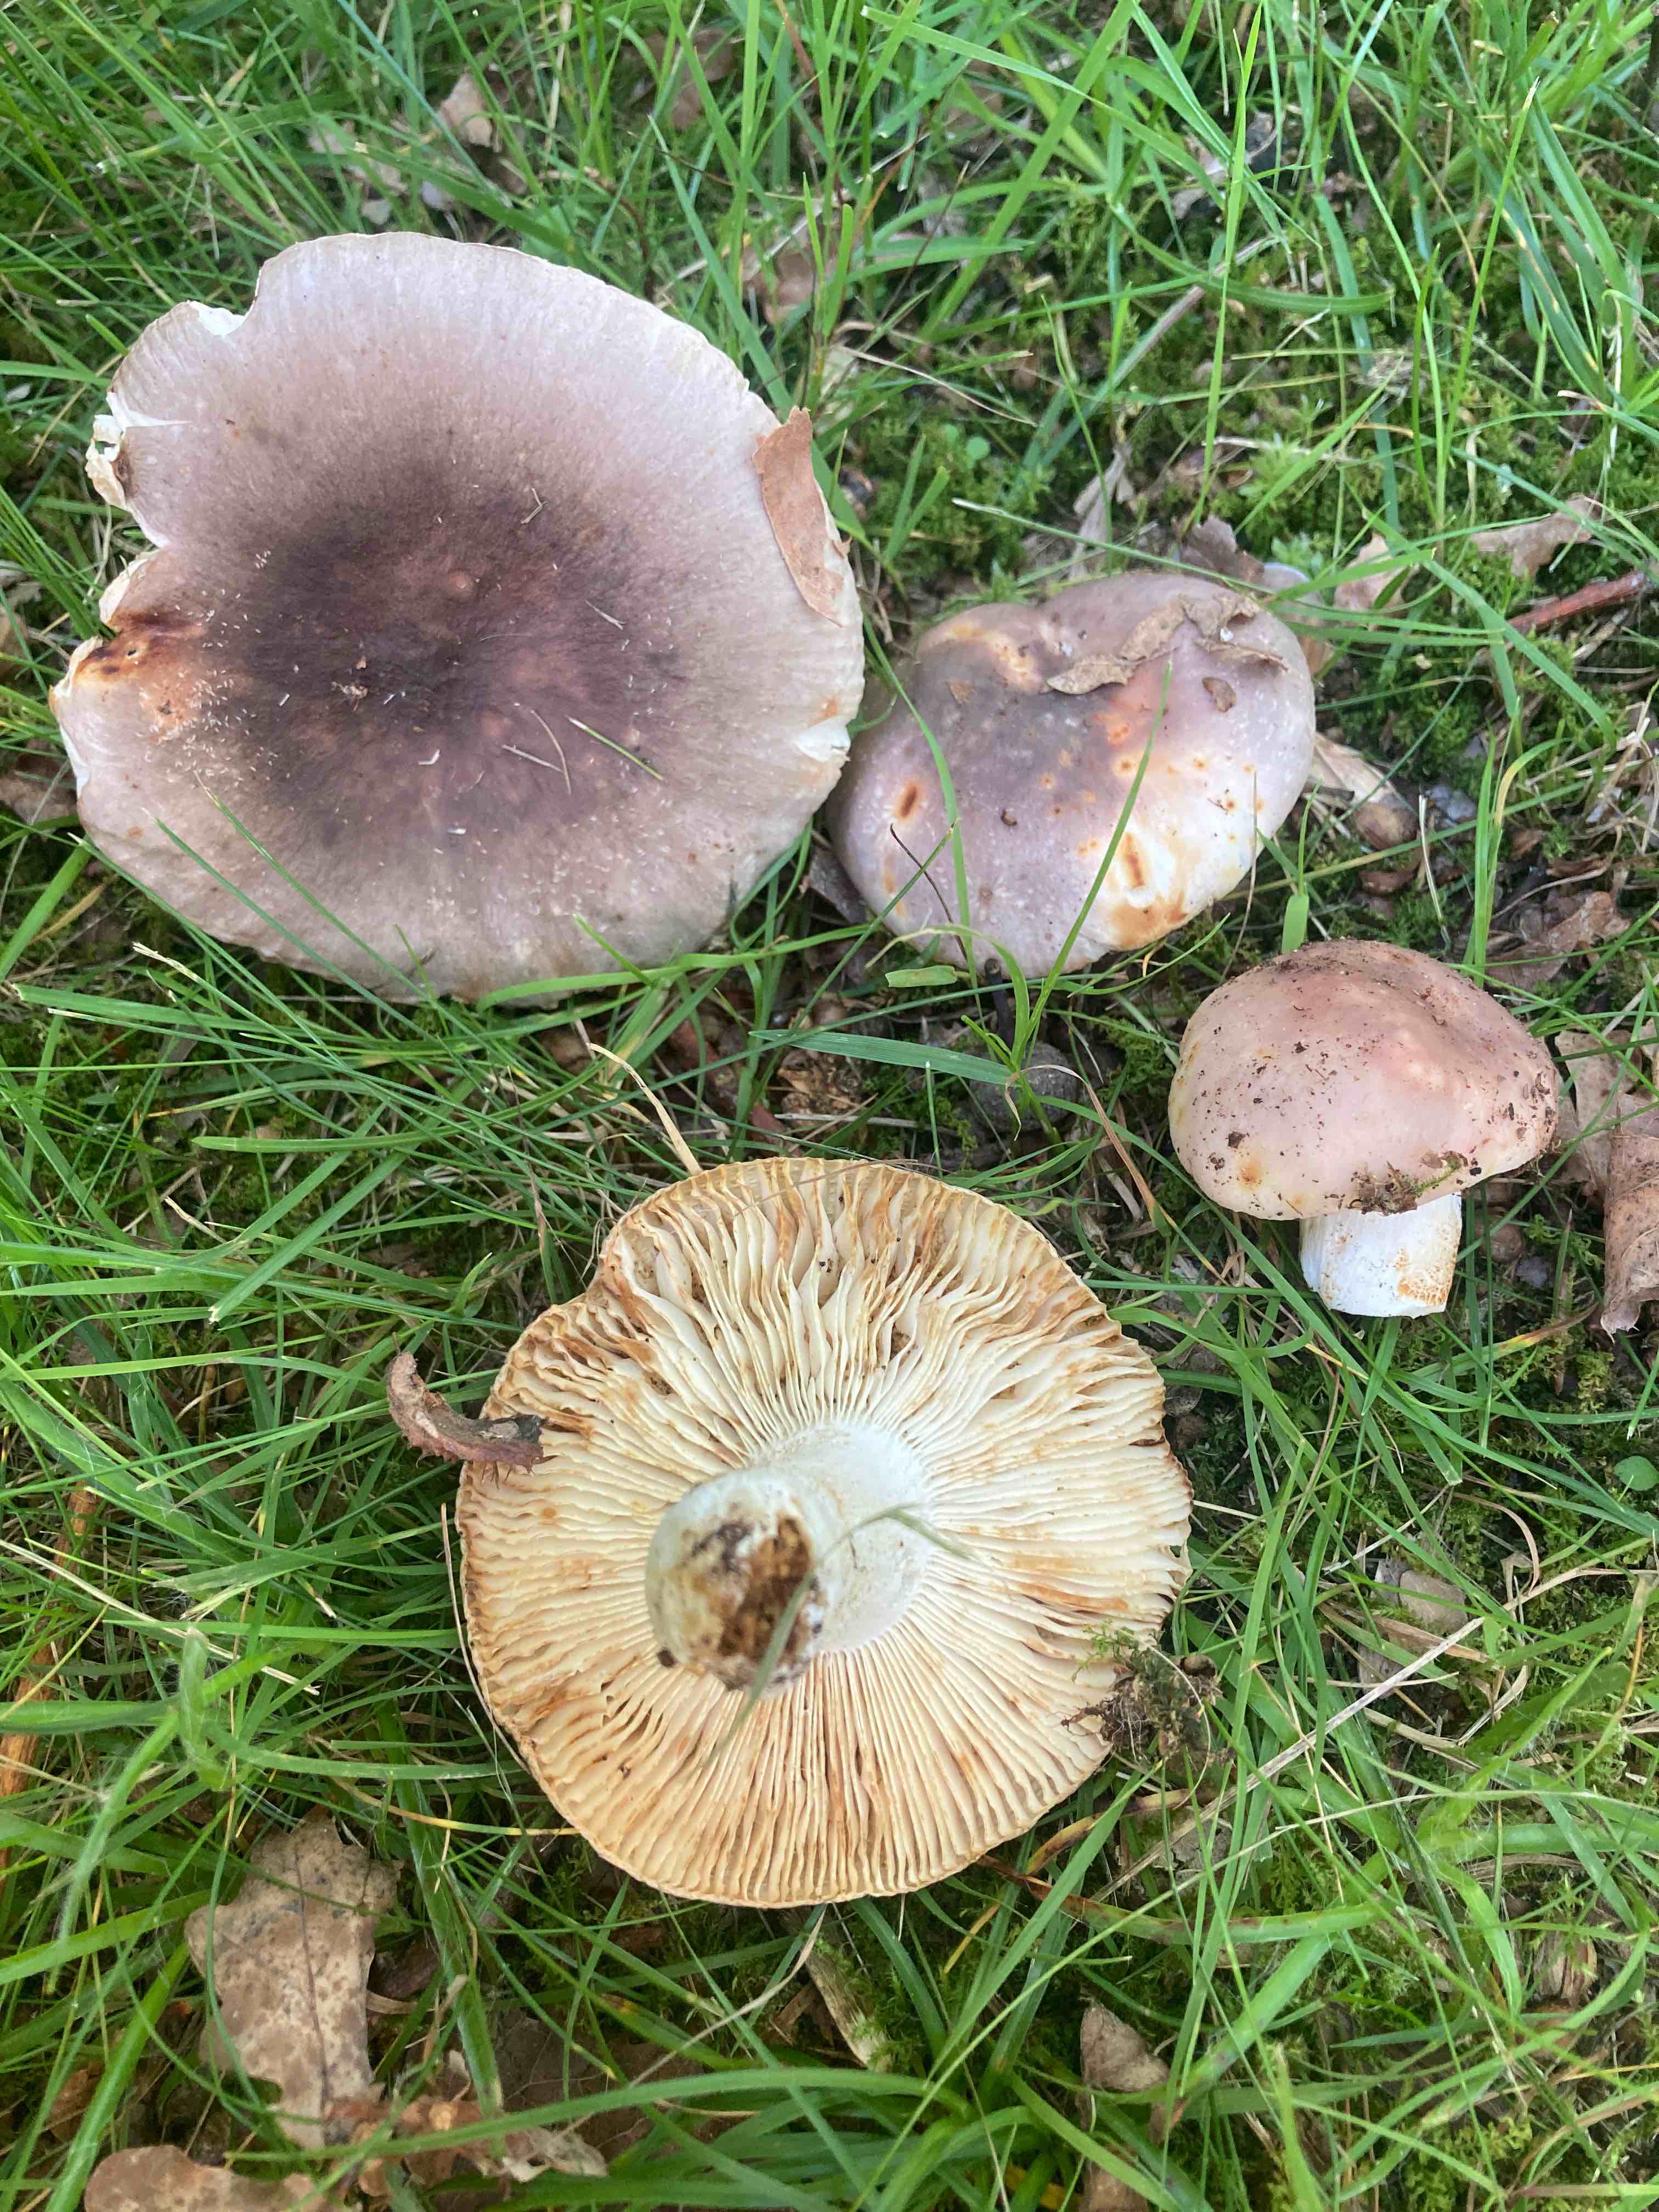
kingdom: Fungi
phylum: Basidiomycota
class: Agaricomycetes
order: Russulales
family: Russulaceae
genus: Russula
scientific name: Russula
